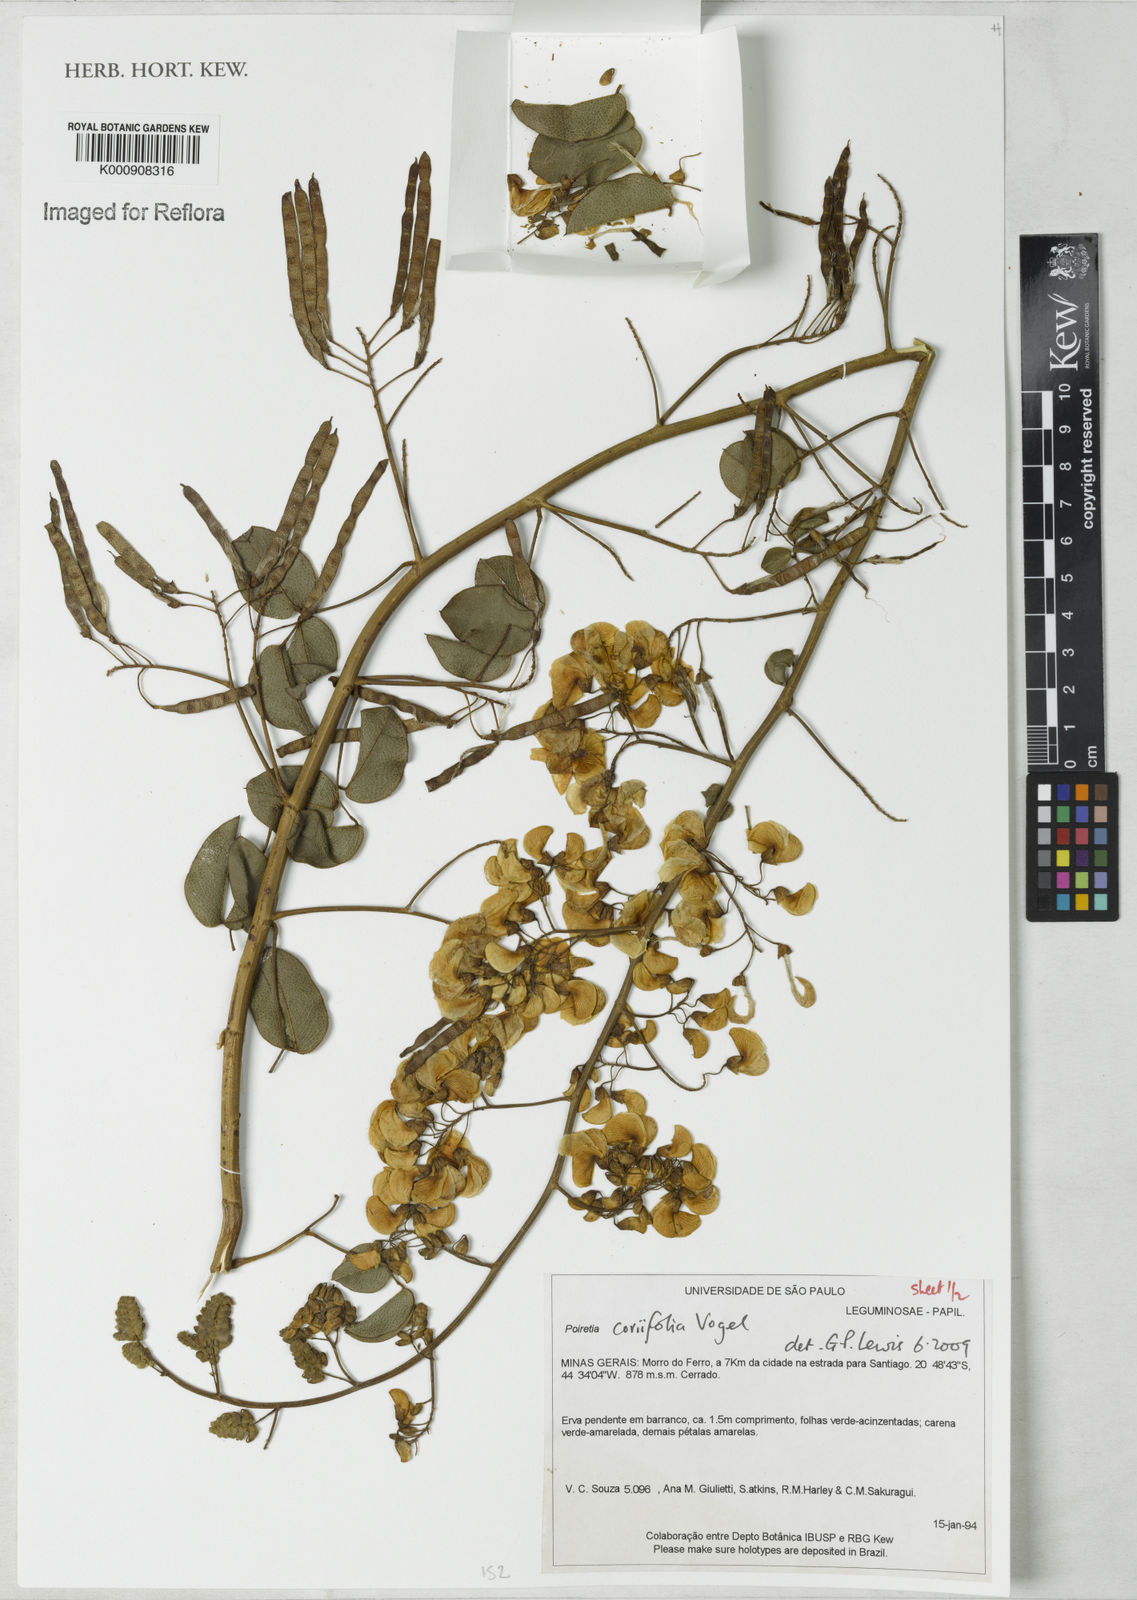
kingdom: Plantae
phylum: Tracheophyta
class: Magnoliopsida
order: Fabales
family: Fabaceae
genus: Poiretia
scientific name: Poiretia coriifolia
